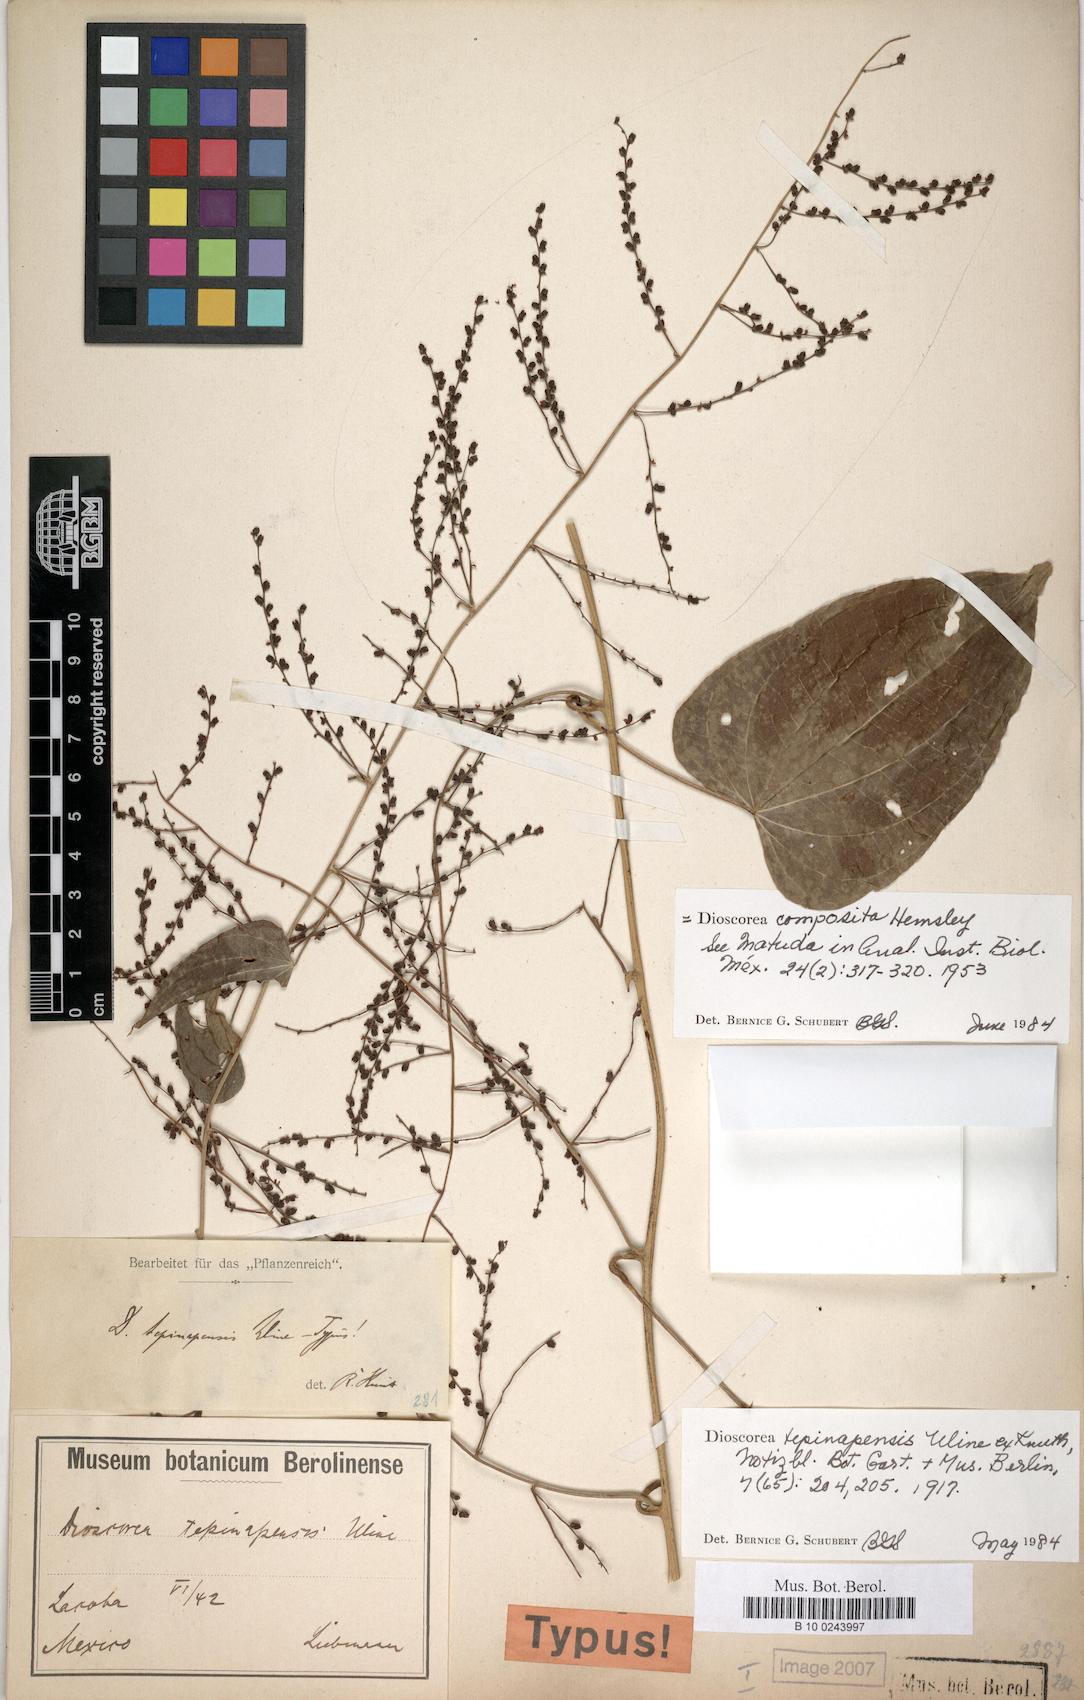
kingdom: Plantae
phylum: Tracheophyta
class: Liliopsida
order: Dioscoreales
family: Dioscoreaceae
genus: Dioscorea
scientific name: Dioscorea composita
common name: Barbasco
